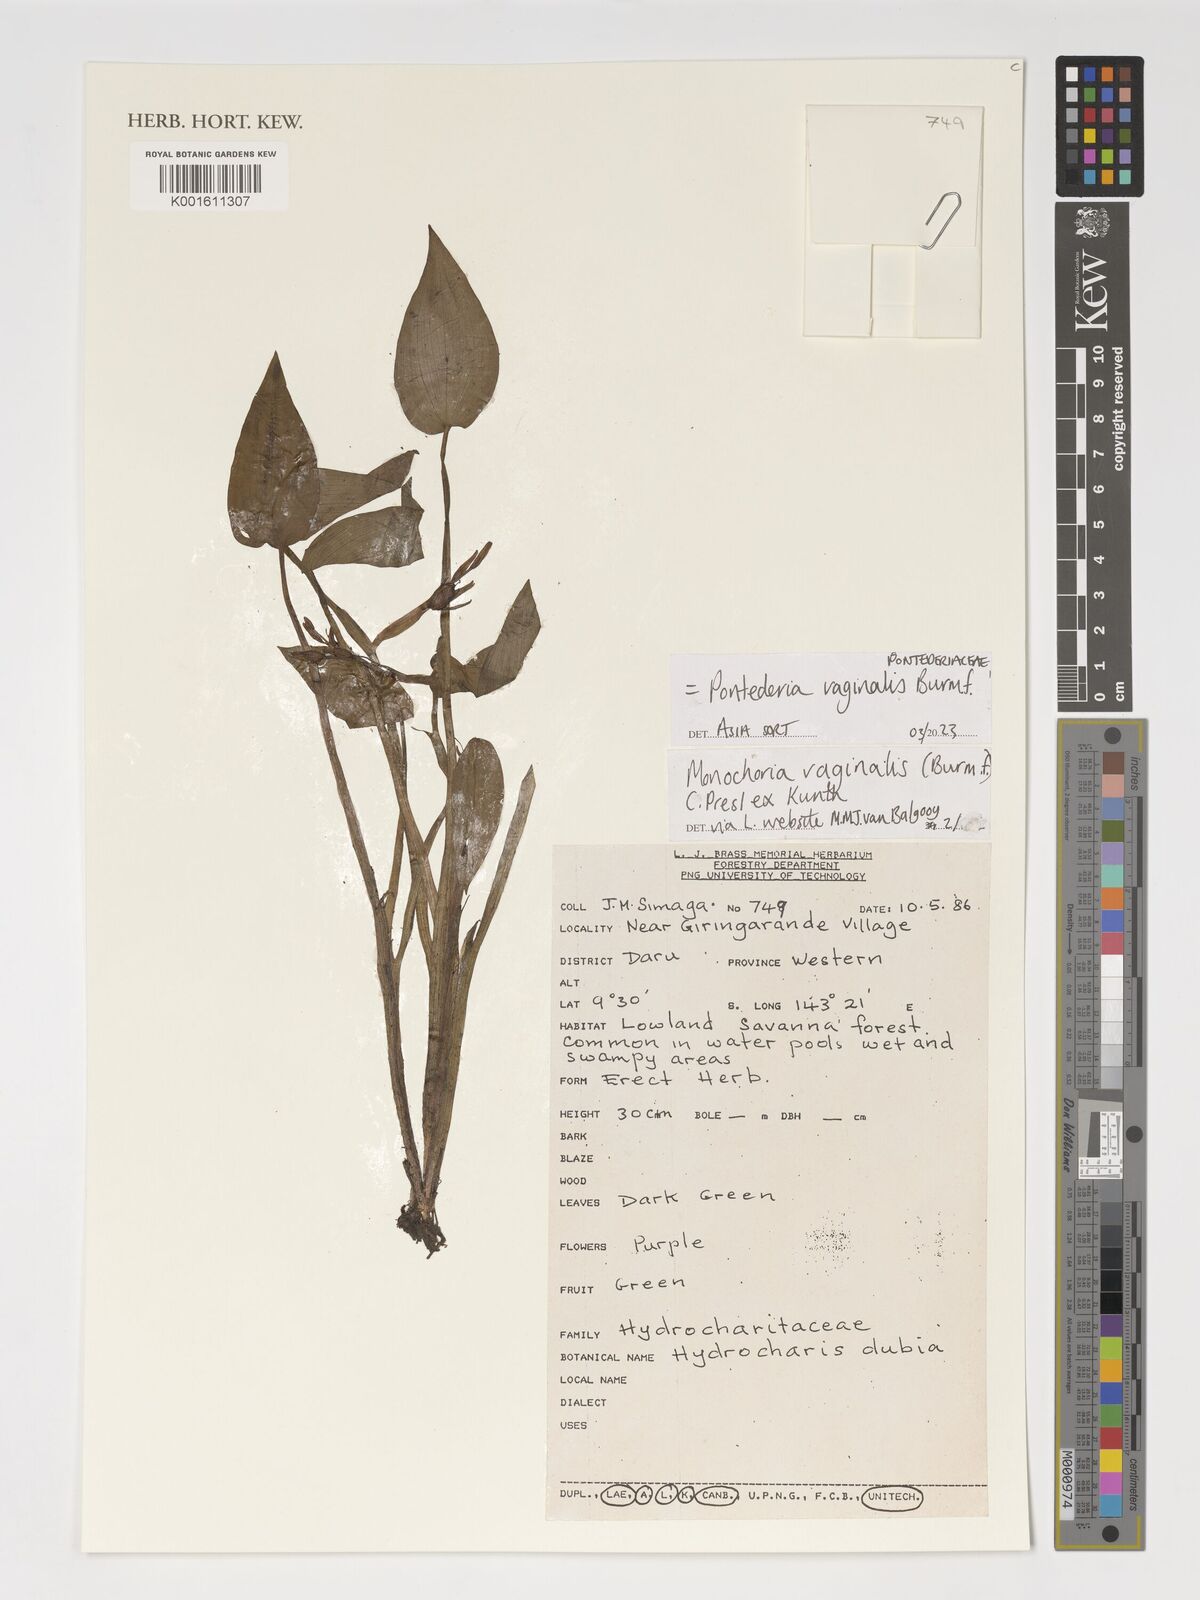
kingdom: Plantae
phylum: Tracheophyta
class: Liliopsida
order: Alismatales
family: Hydrocharitaceae
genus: Hydrocharis
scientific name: Hydrocharis dubia
